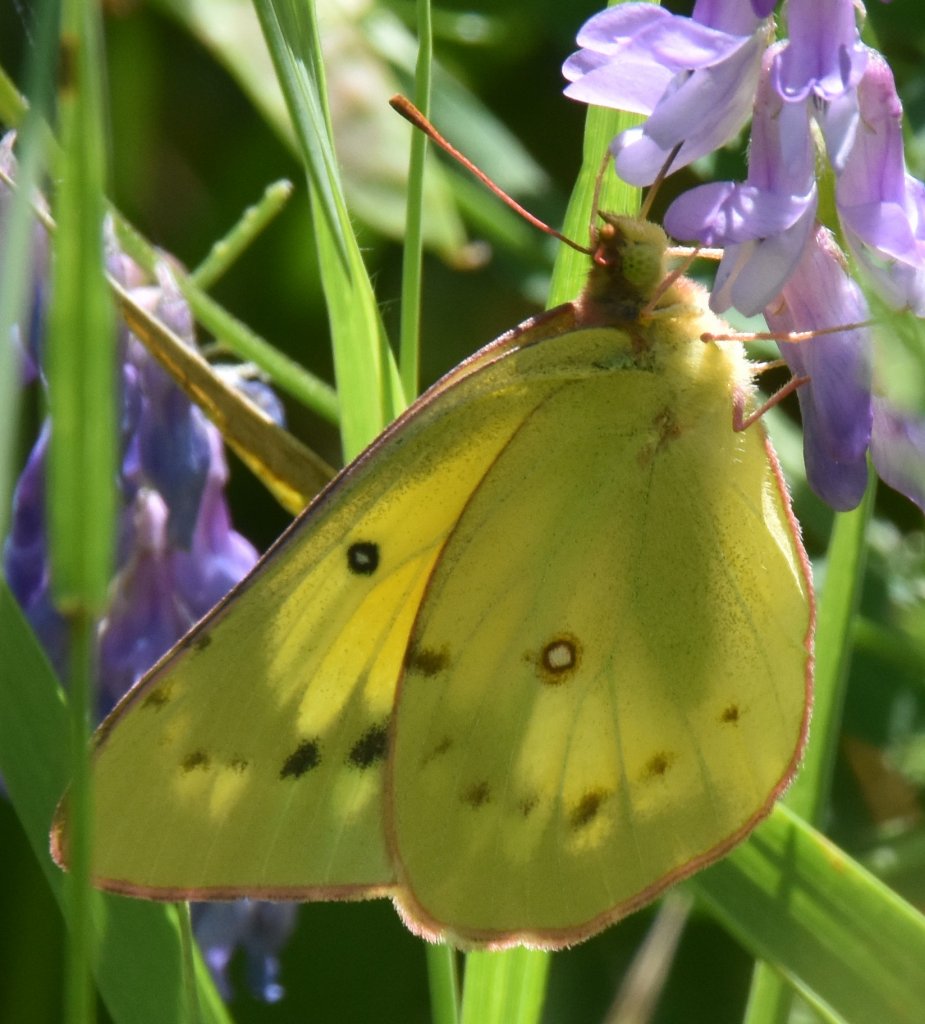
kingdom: Animalia
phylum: Arthropoda
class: Insecta
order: Lepidoptera
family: Pieridae
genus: Colias
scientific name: Colias philodice
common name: Clouded Sulphur
